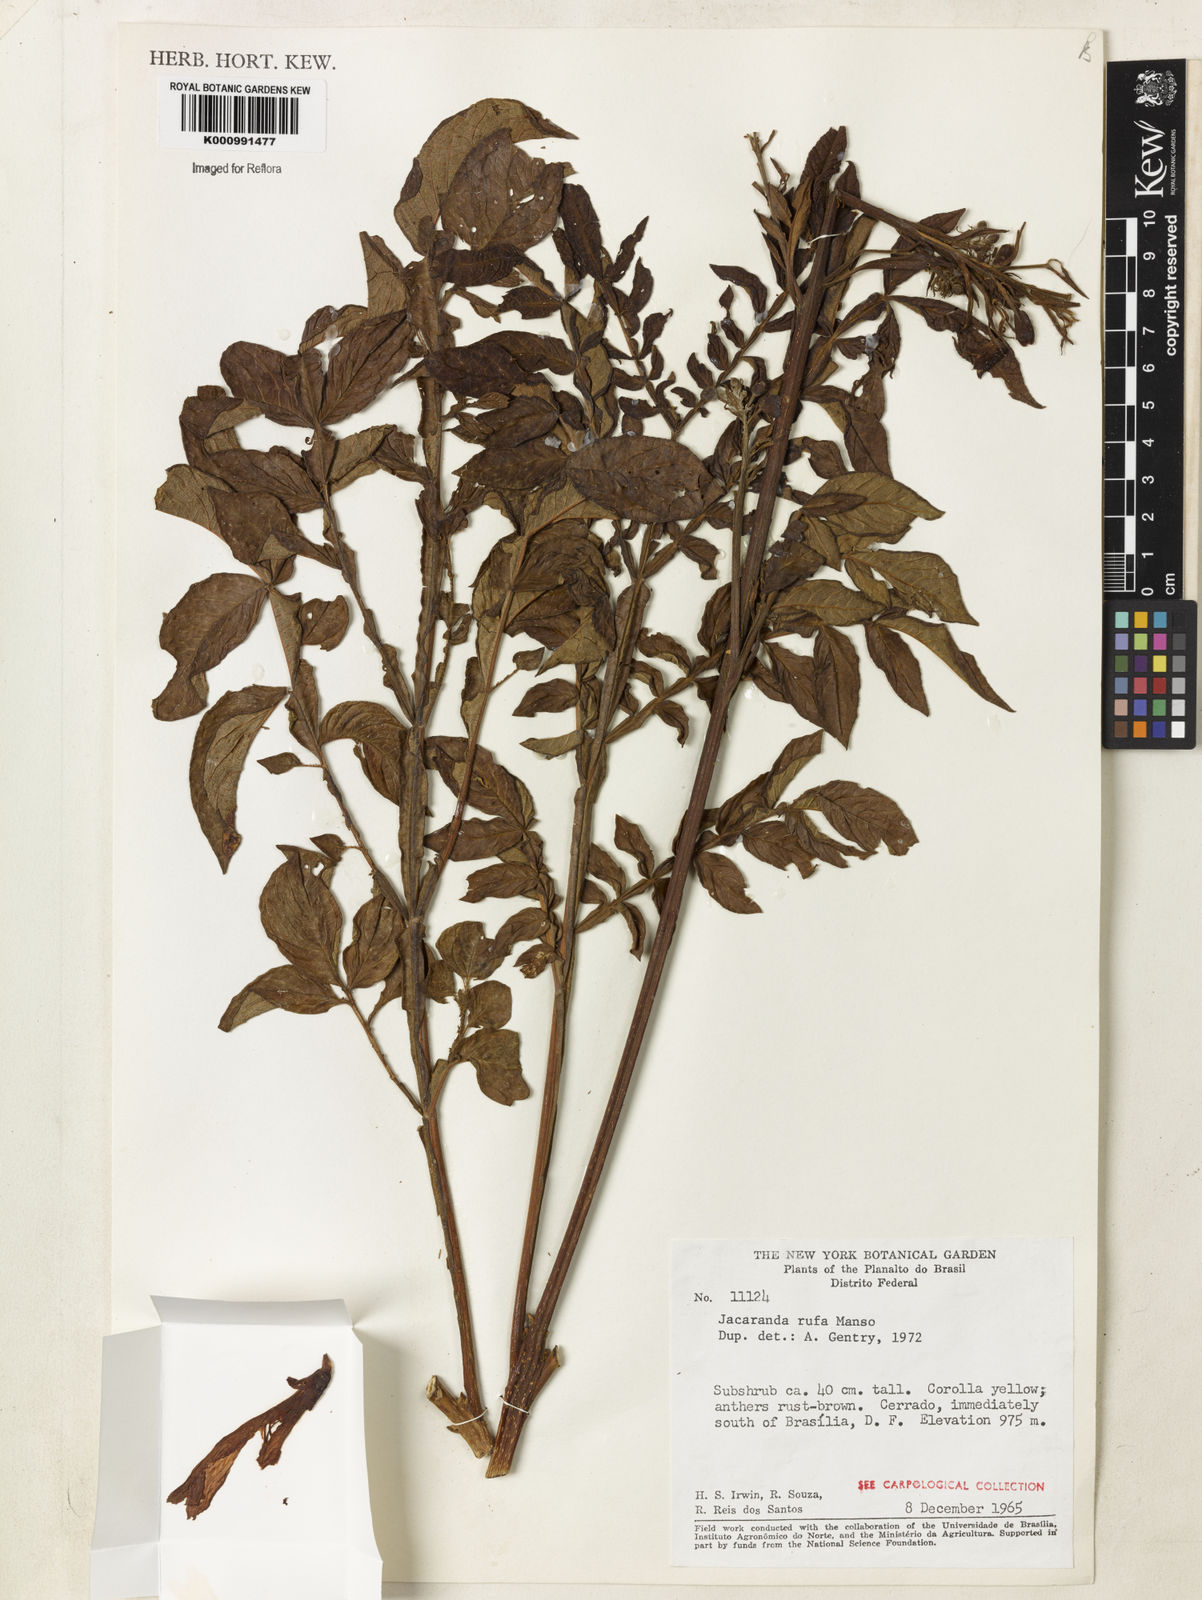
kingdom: Plantae
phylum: Tracheophyta
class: Magnoliopsida
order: Lamiales
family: Bignoniaceae
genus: Jacaranda
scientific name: Jacaranda rufa
